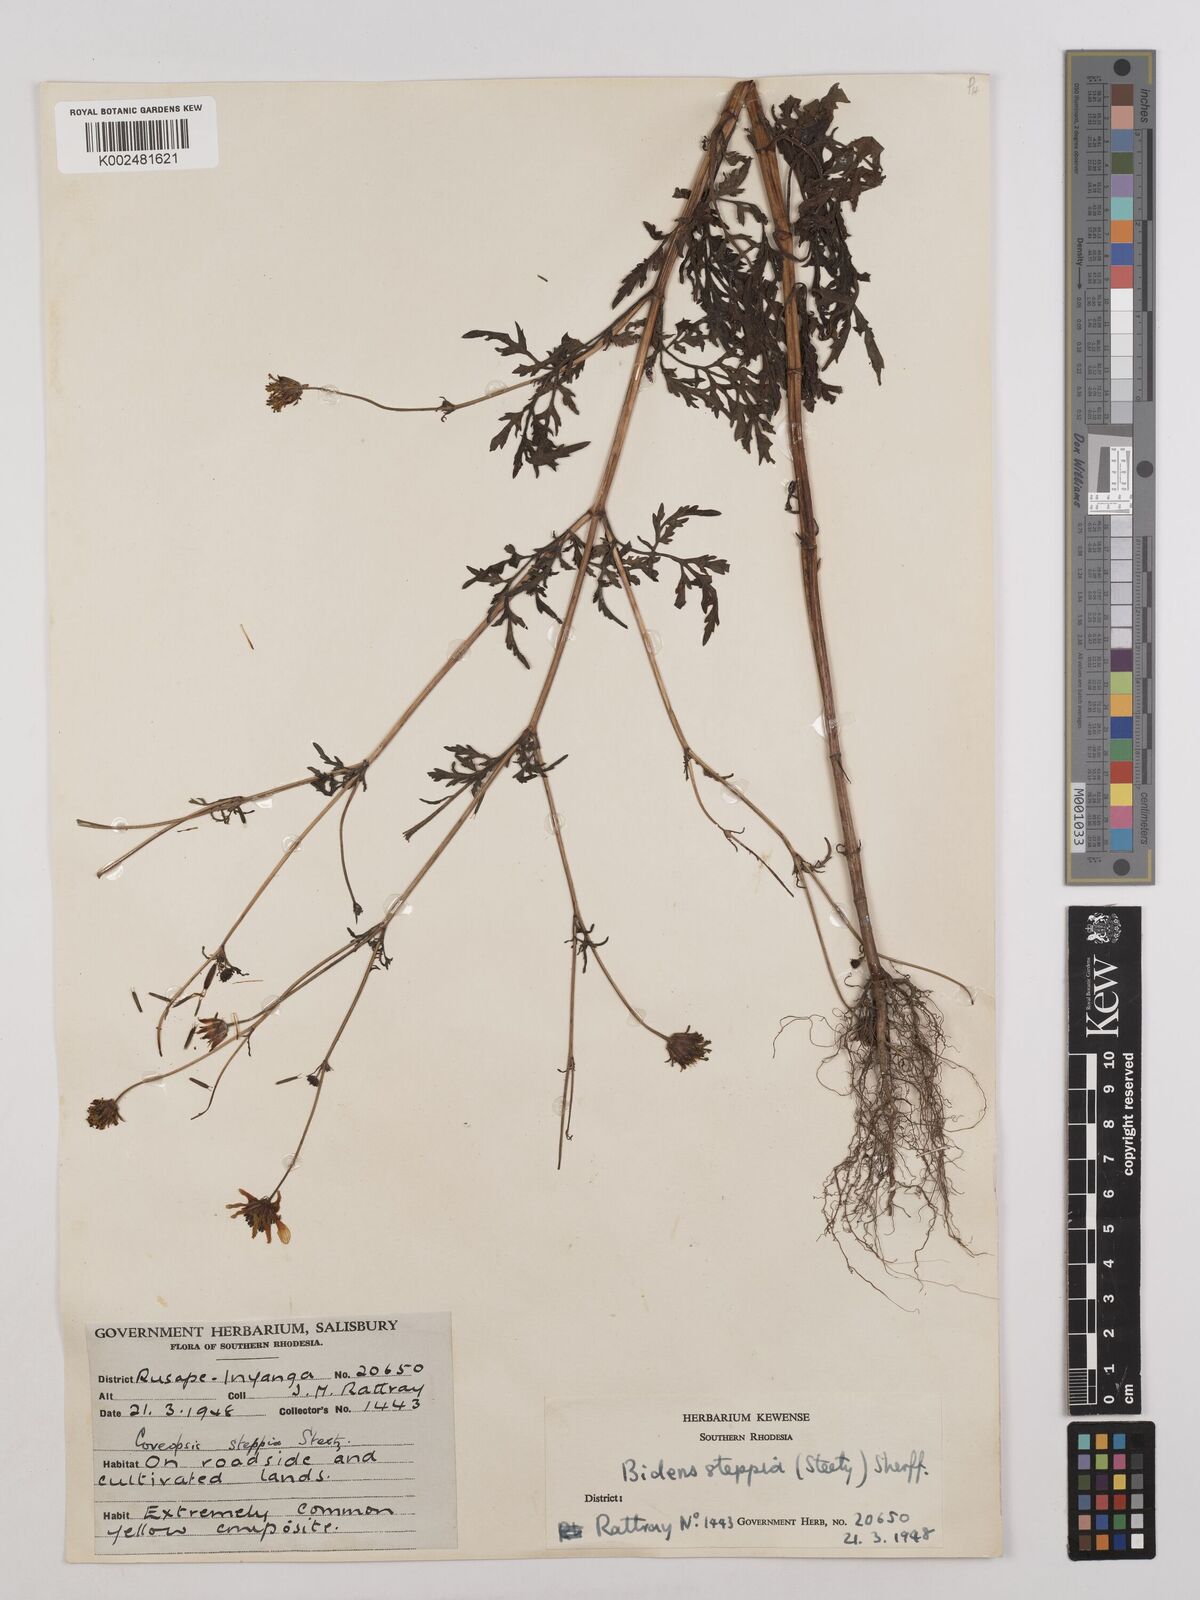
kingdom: Plantae
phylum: Tracheophyta
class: Magnoliopsida
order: Asterales
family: Asteraceae
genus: Bidens
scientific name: Bidens schimperi
